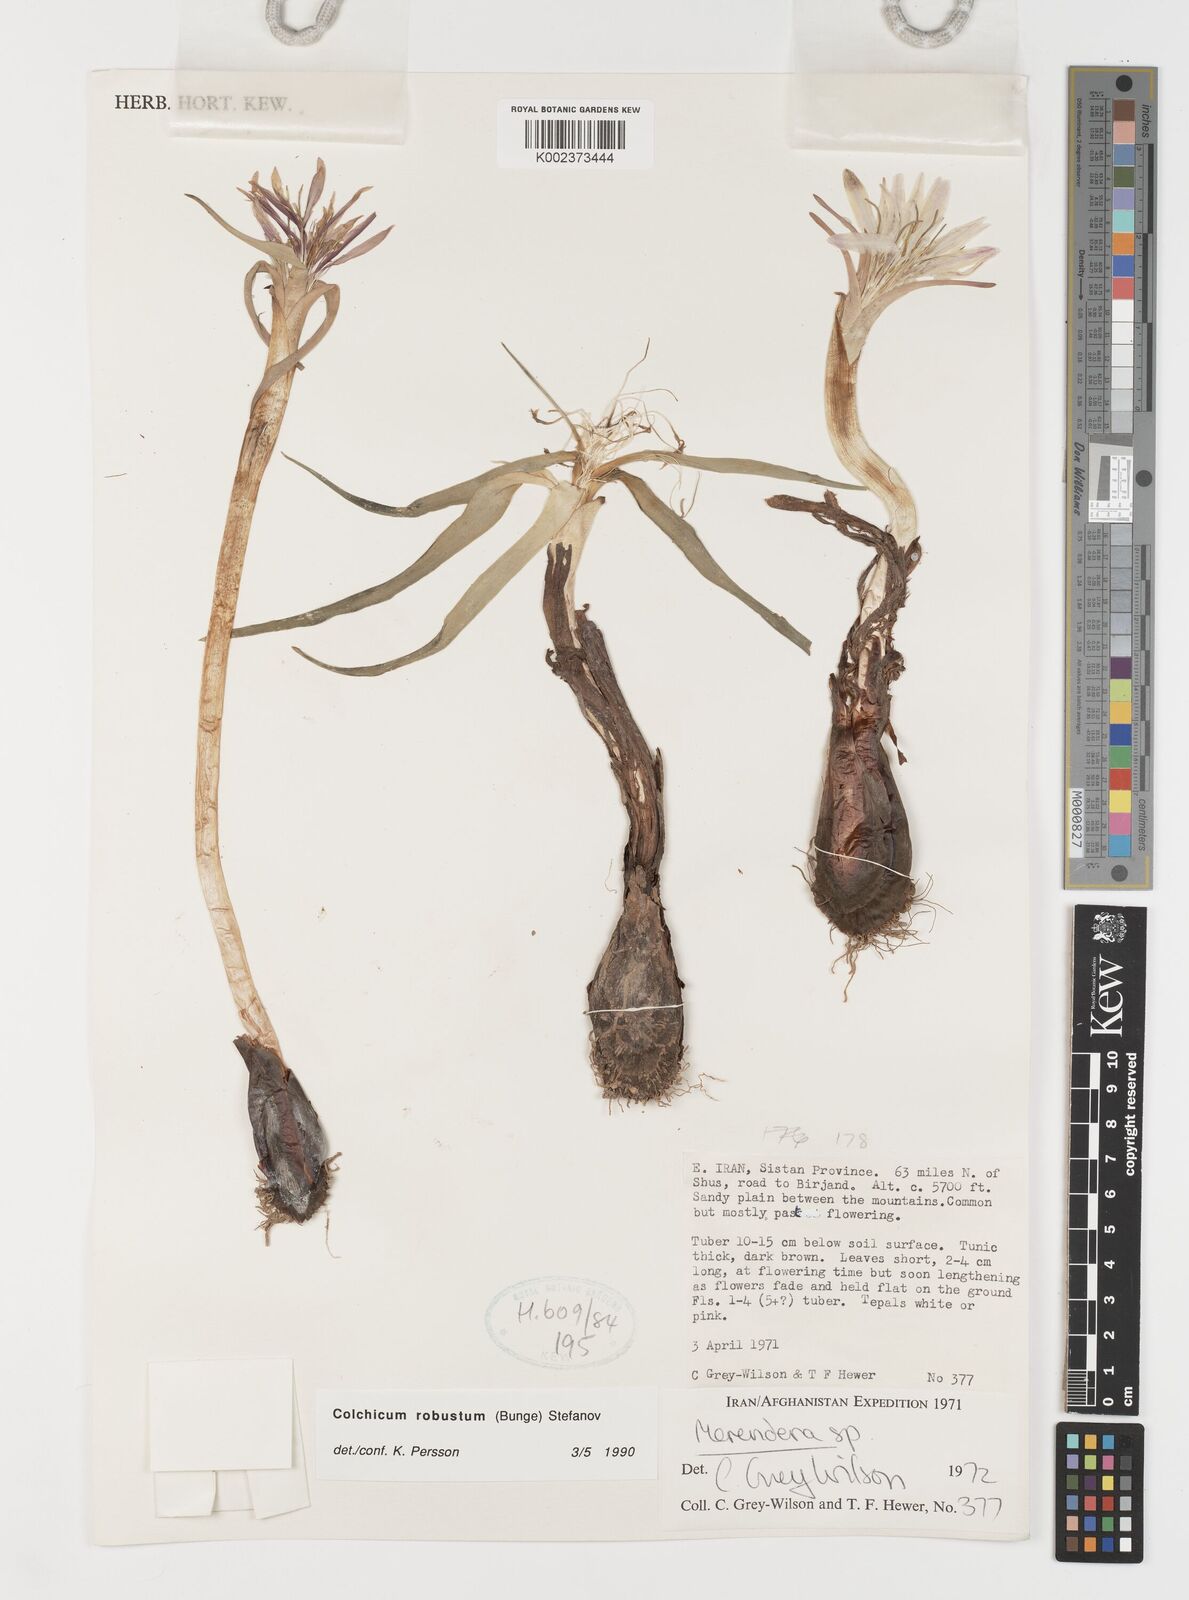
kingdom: Plantae
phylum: Tracheophyta
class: Liliopsida
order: Liliales
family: Colchicaceae
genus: Colchicum
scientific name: Colchicum robustum
